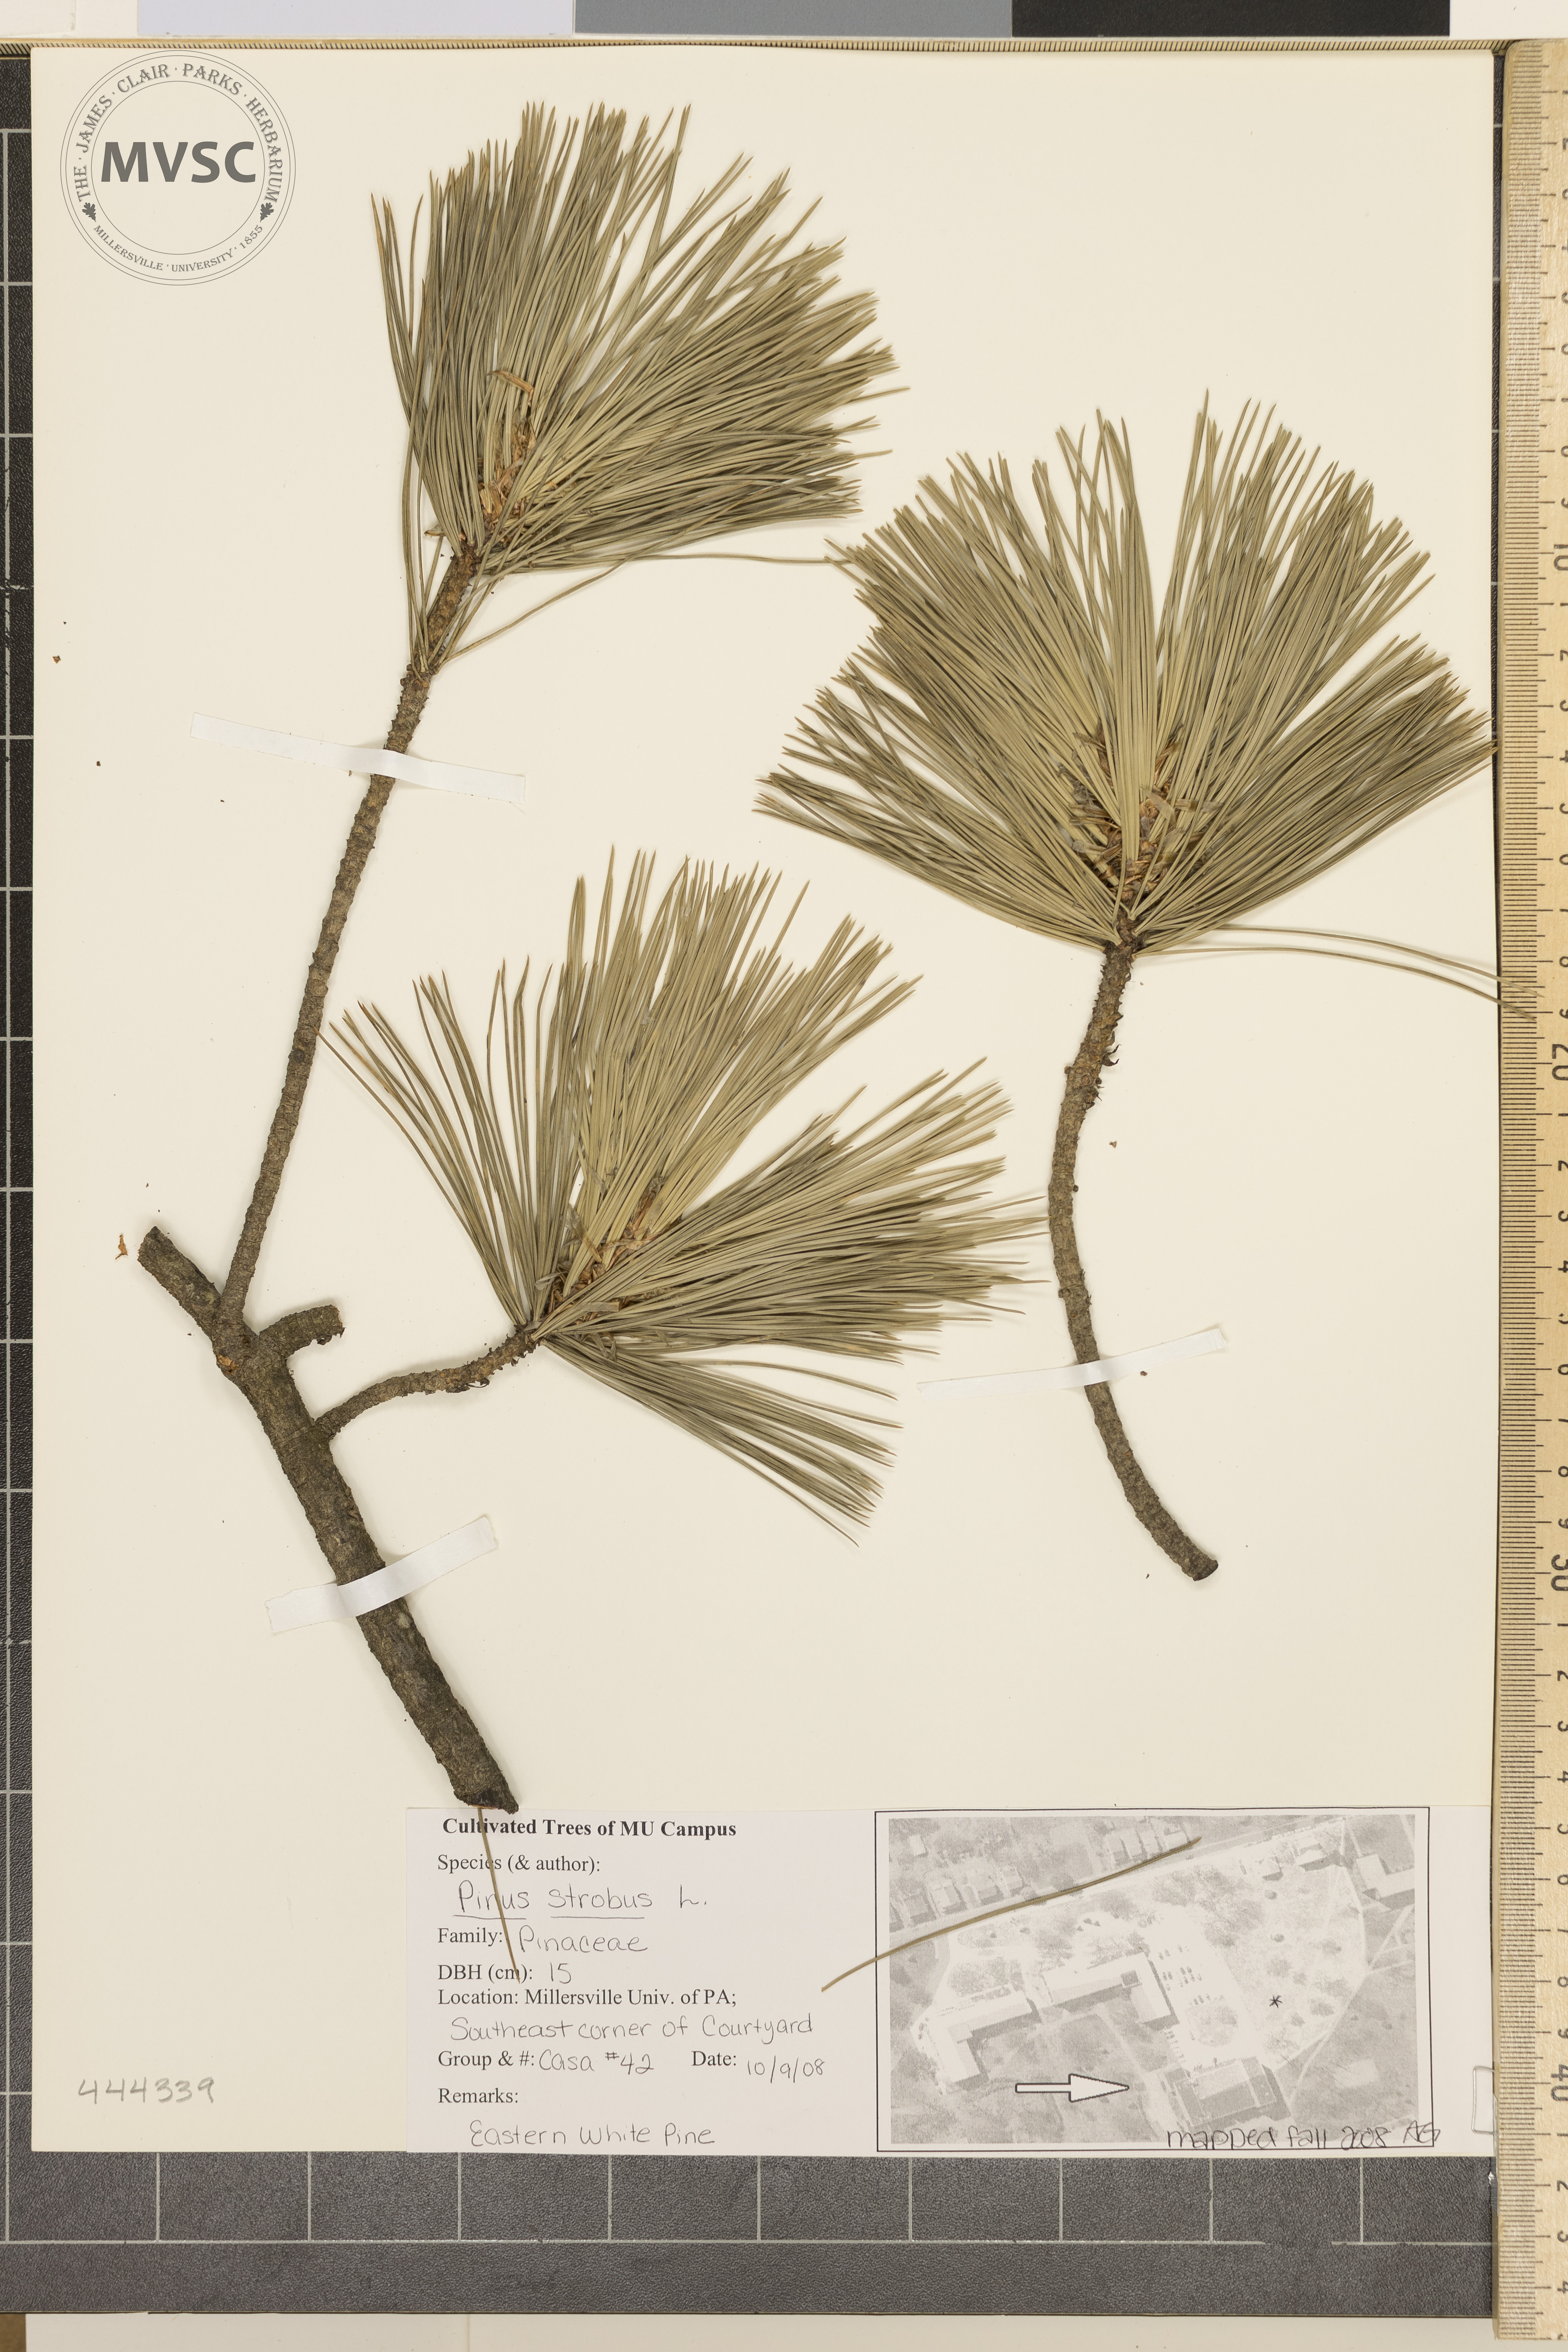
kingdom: Plantae
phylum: Tracheophyta
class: Pinopsida
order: Pinales
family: Pinaceae
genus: Pinus
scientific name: Pinus strobus
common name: Eastern White Pine
